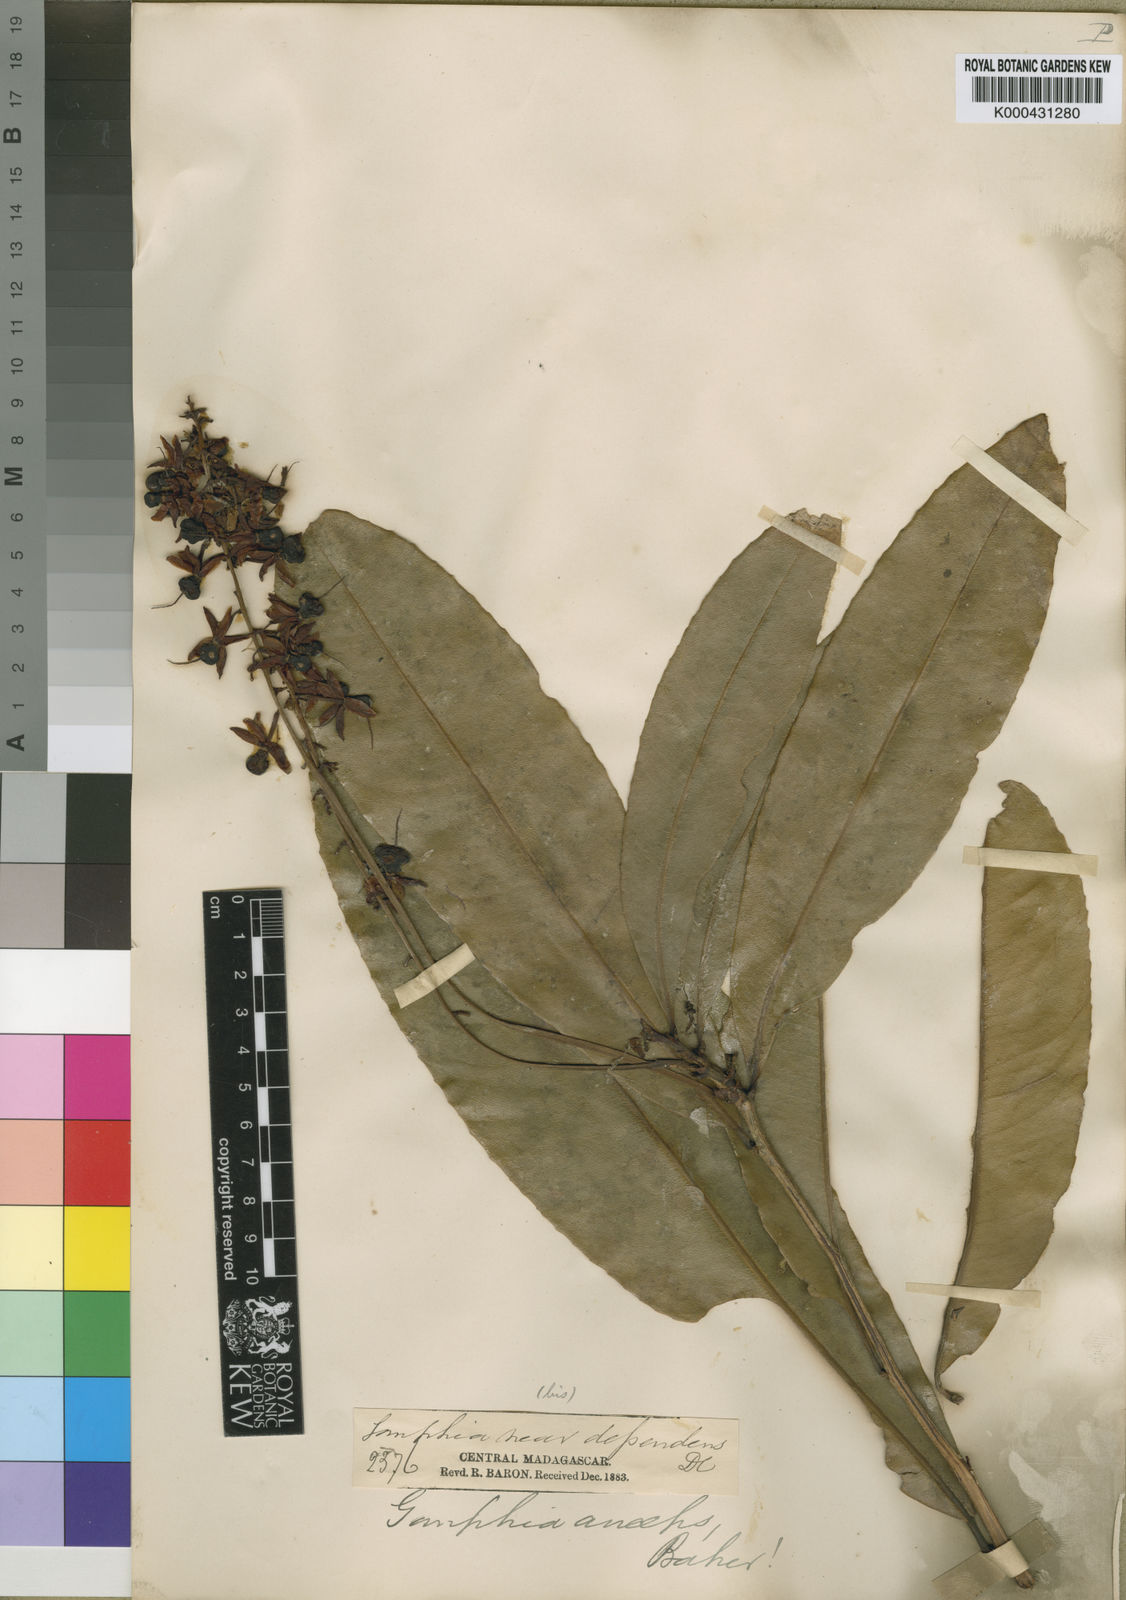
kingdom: Plantae
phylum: Tracheophyta
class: Magnoliopsida
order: Malpighiales
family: Ochnaceae
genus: Campylospermum
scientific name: Campylospermum anceps
